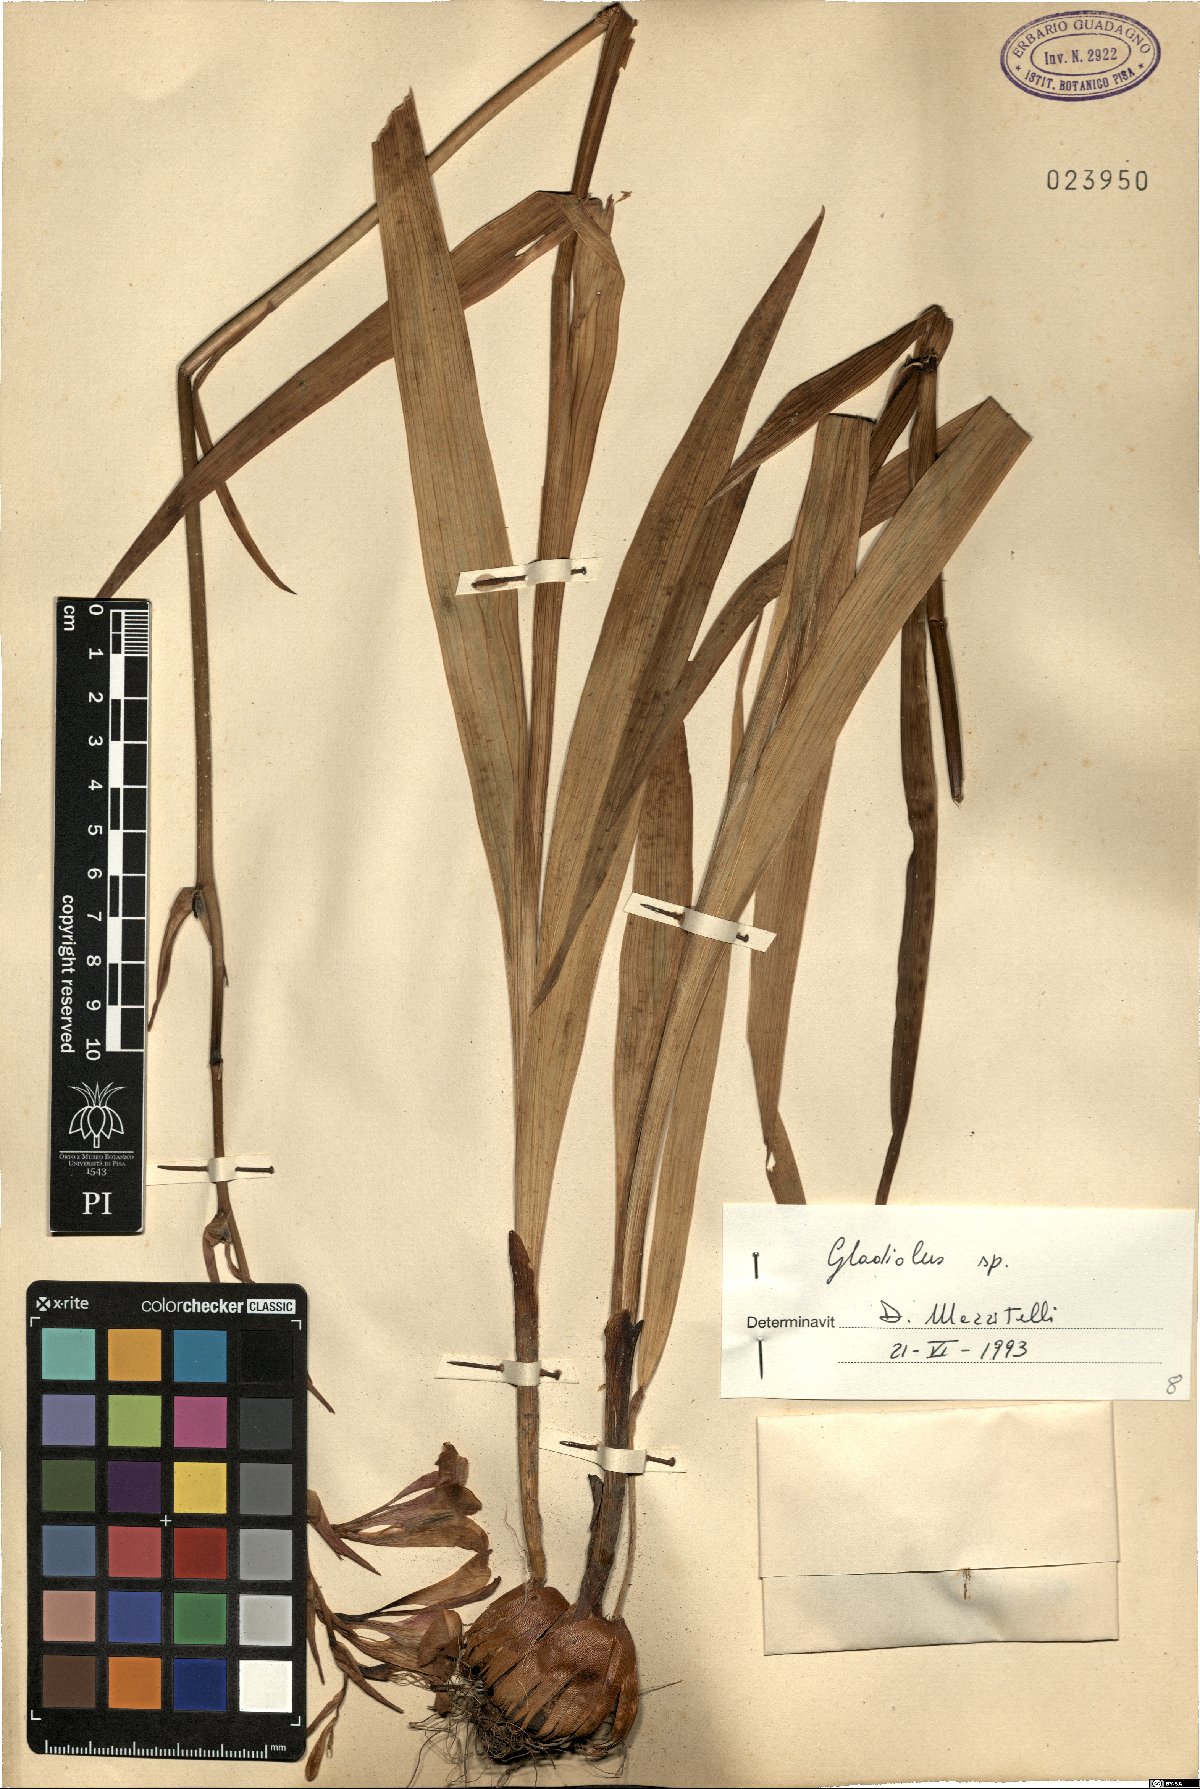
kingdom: Plantae
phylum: Tracheophyta
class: Liliopsida
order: Asparagales
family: Iridaceae
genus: Gladiolus
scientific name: Gladiolus
